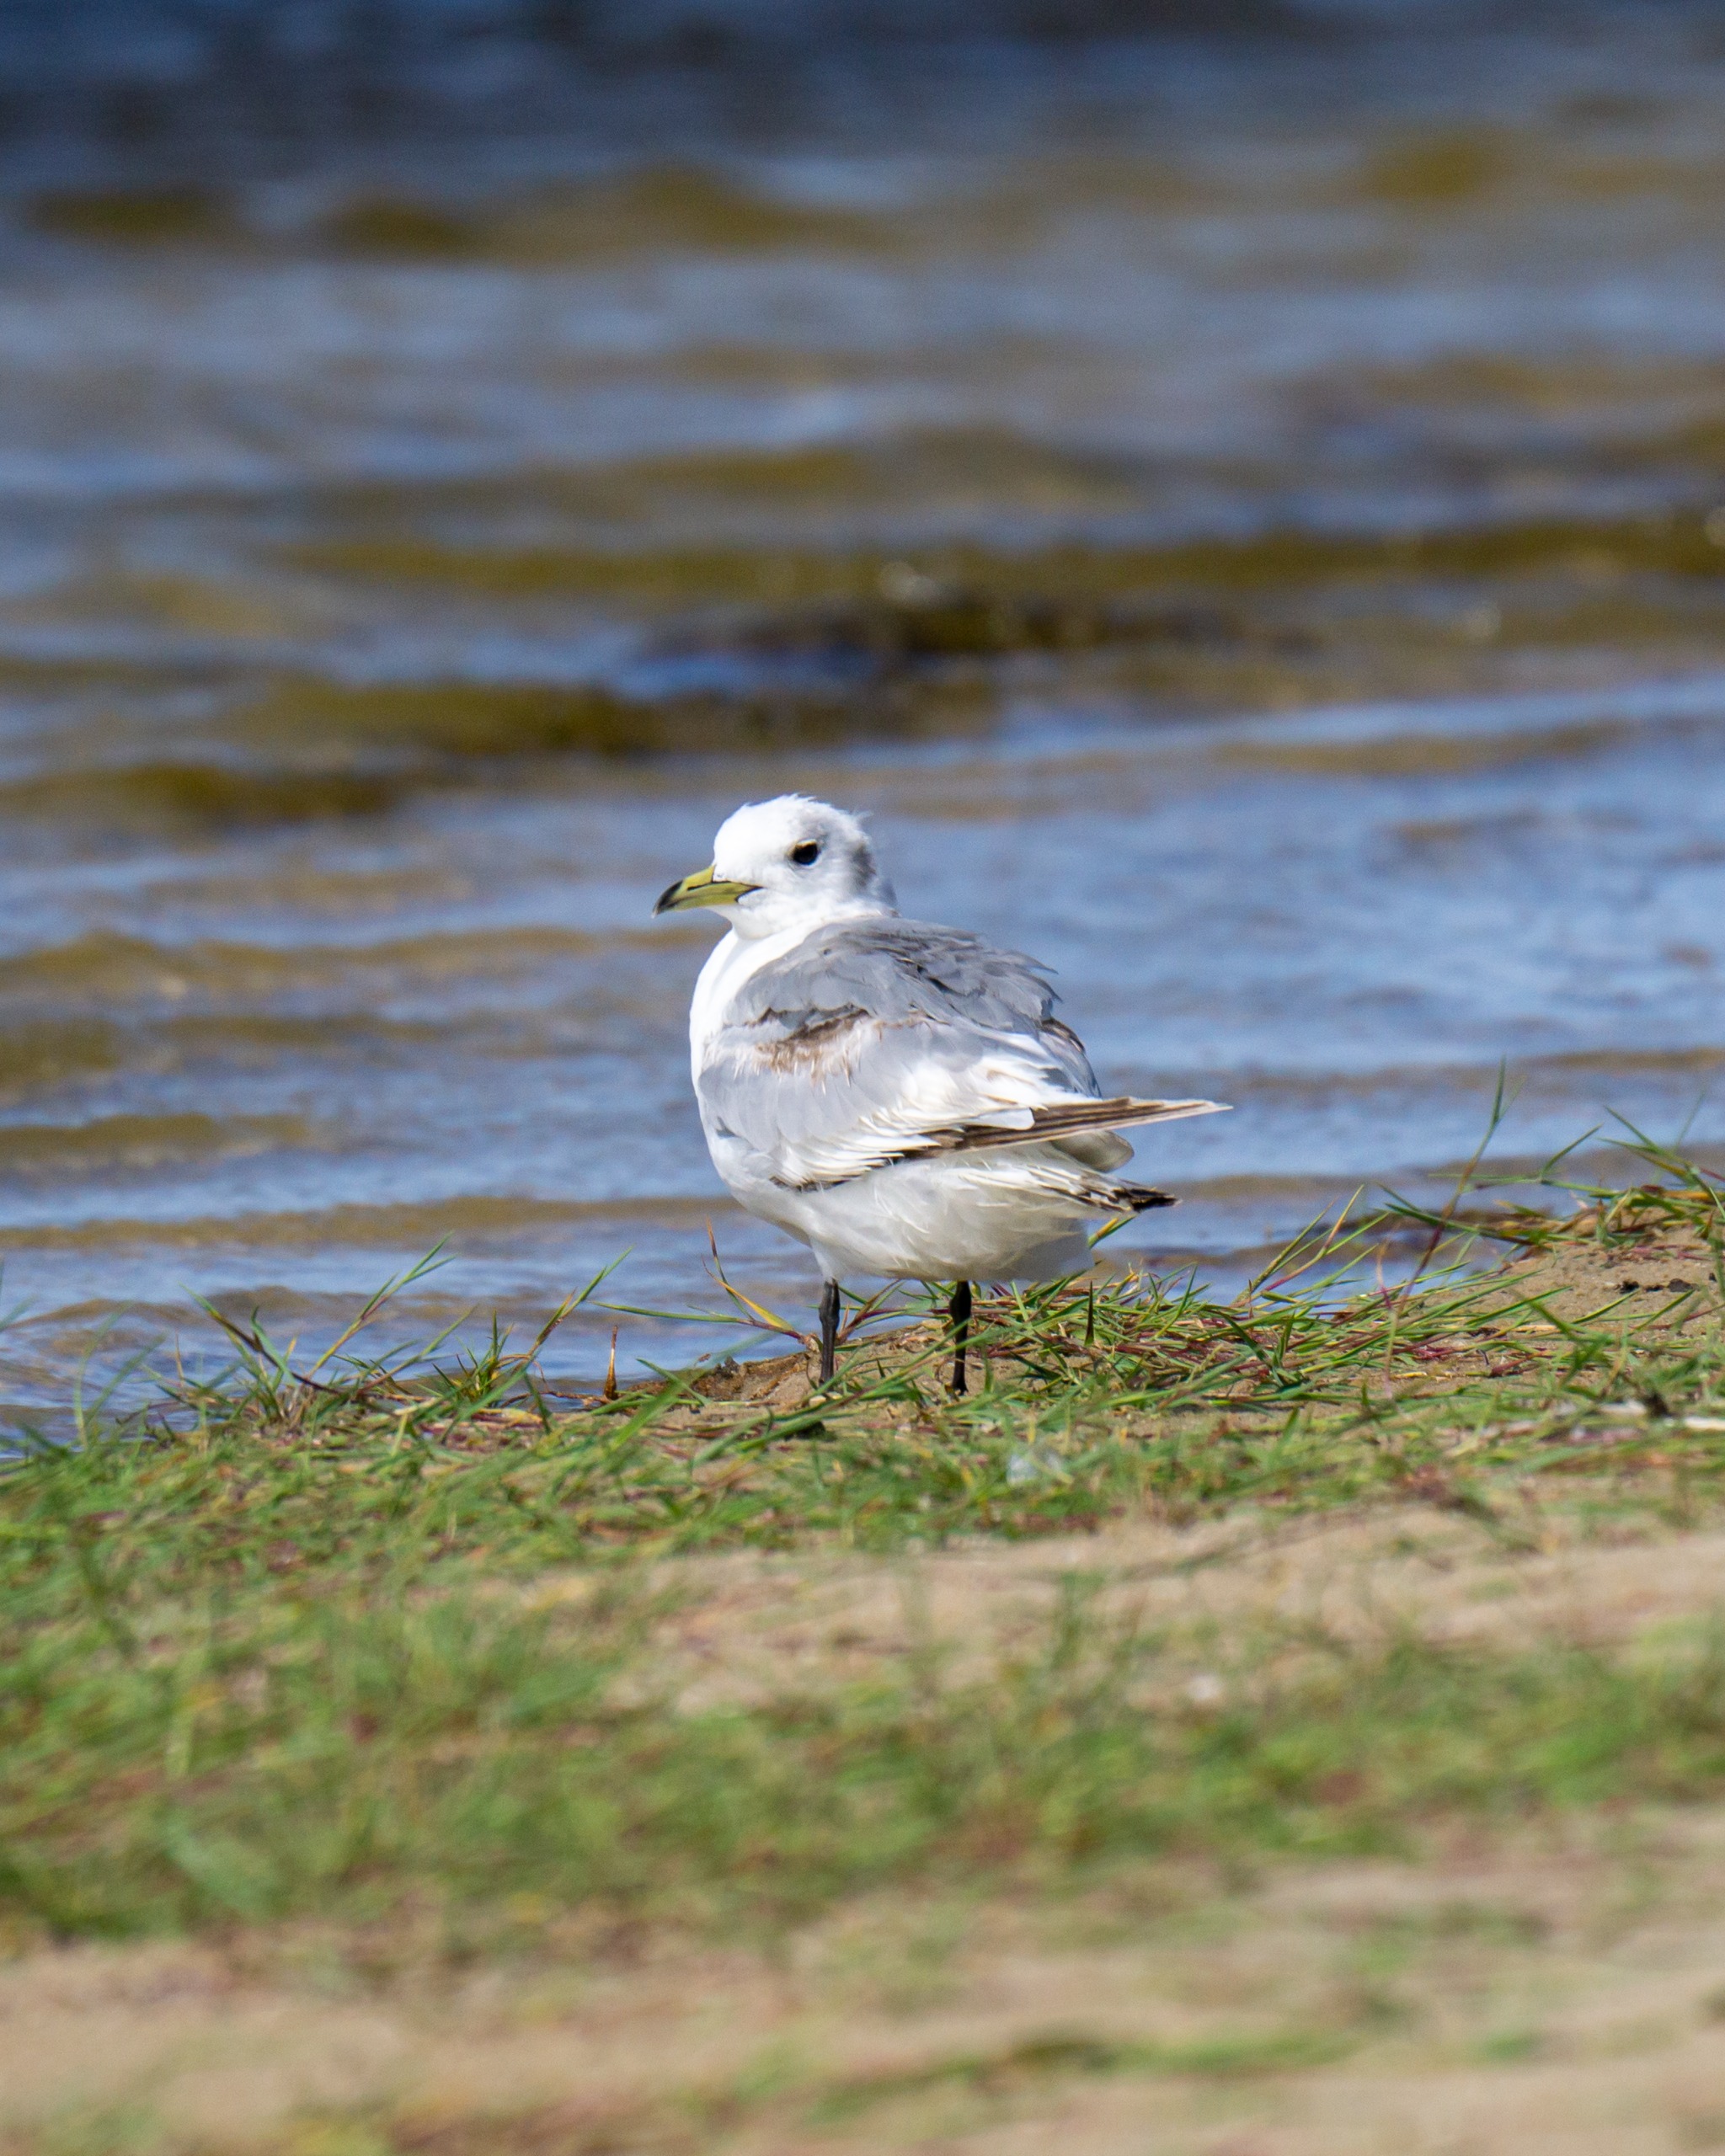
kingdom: Animalia
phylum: Chordata
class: Aves
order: Charadriiformes
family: Laridae
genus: Rissa
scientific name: Rissa tridactyla
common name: Ride
